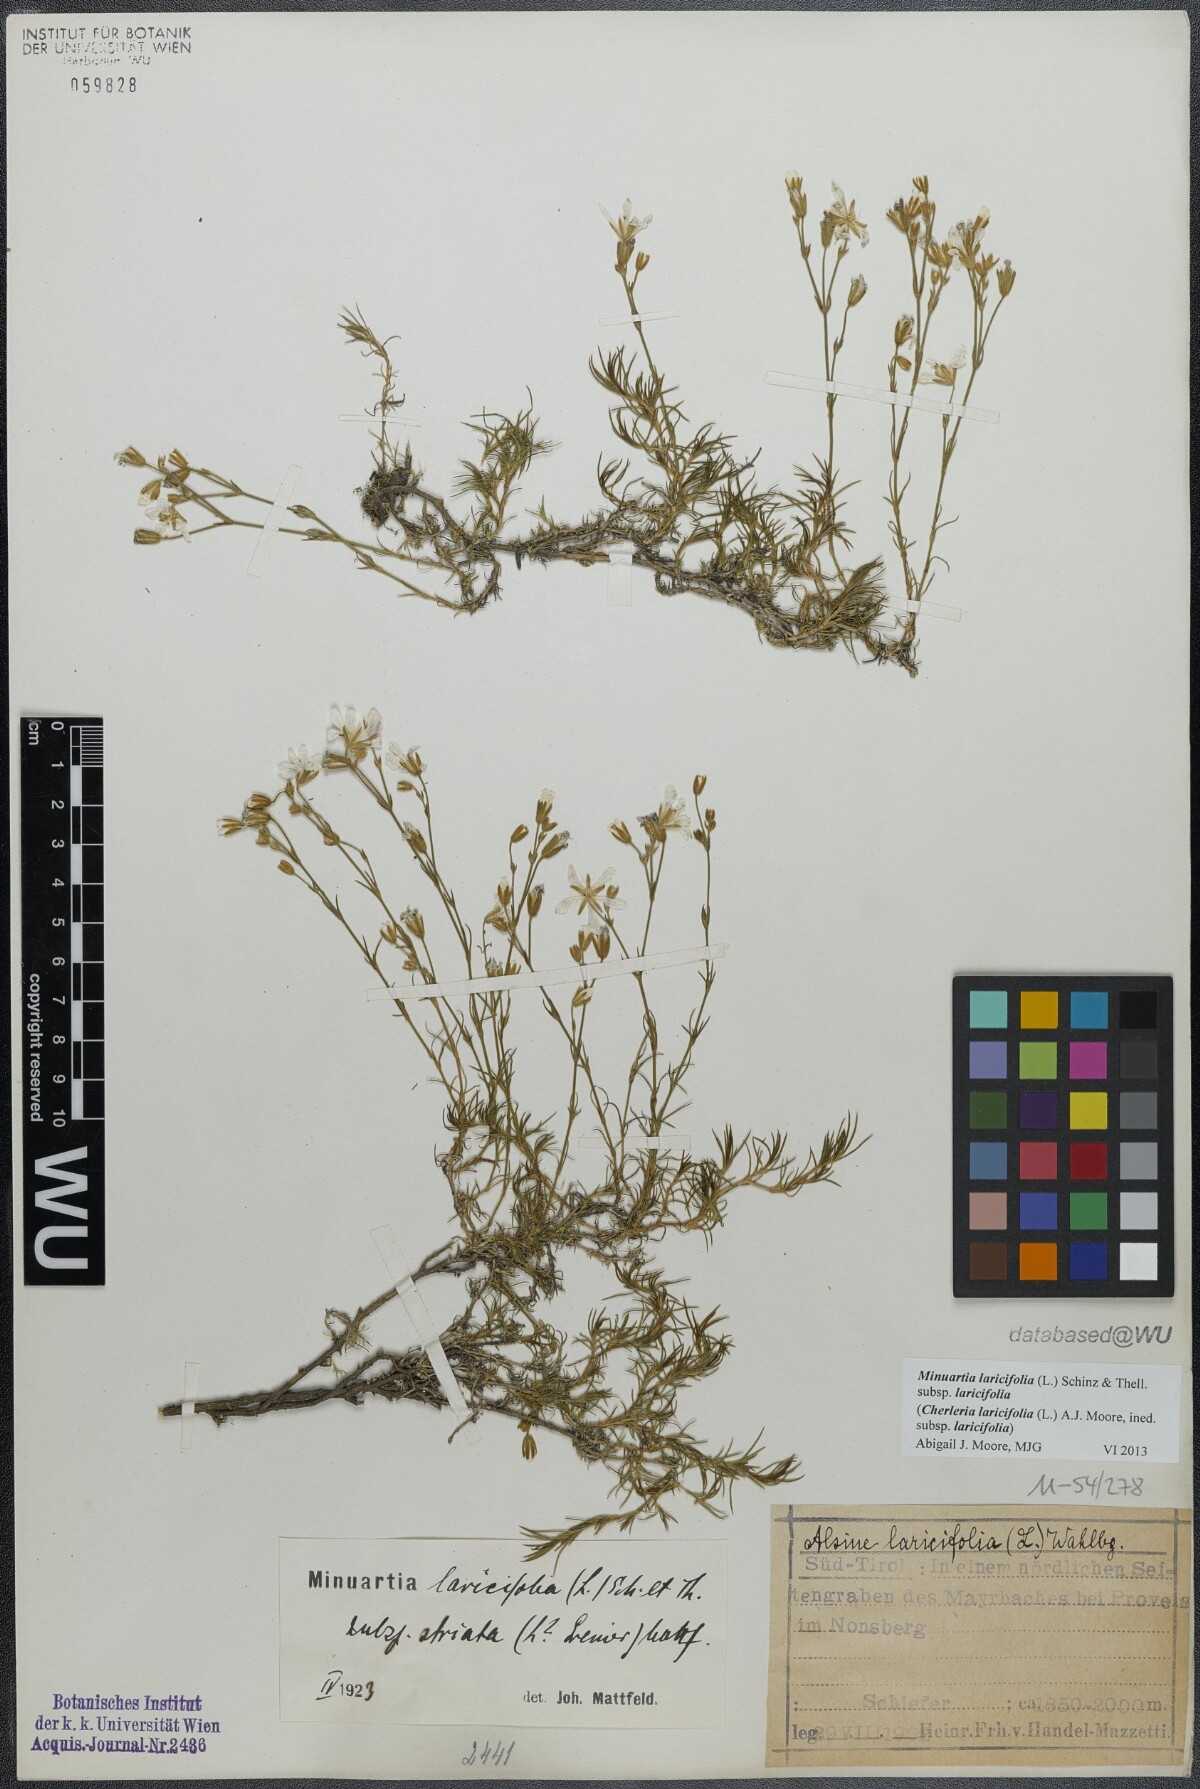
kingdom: Plantae
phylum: Tracheophyta
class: Magnoliopsida
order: Caryophyllales
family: Caryophyllaceae
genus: Cherleria
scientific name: Cherleria laricifolia
